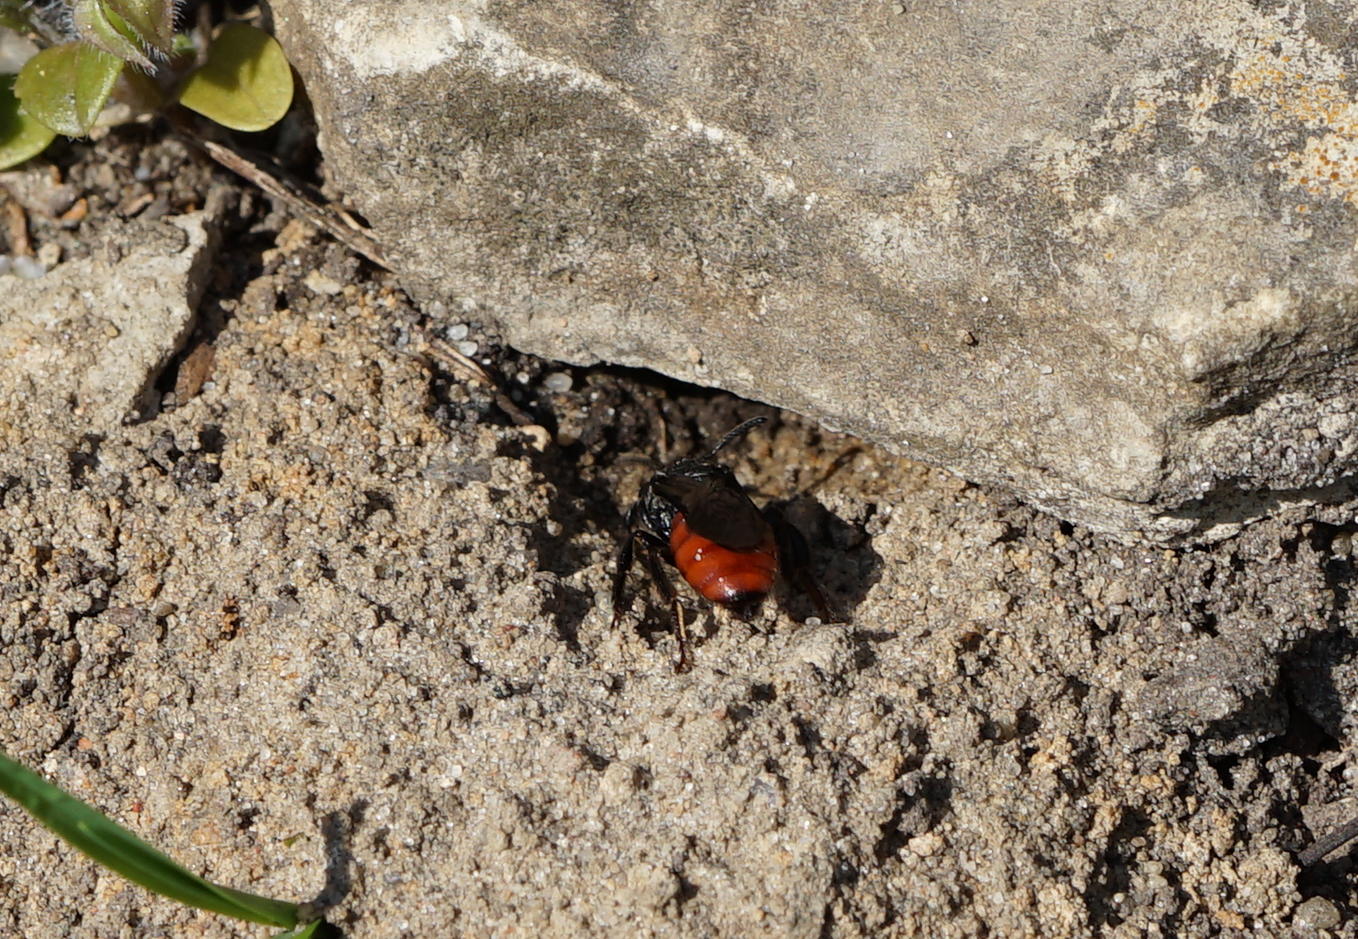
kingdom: Animalia
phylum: Arthropoda
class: Insecta
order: Hymenoptera
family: Halictidae
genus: Sphecodes
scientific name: Sphecodes
